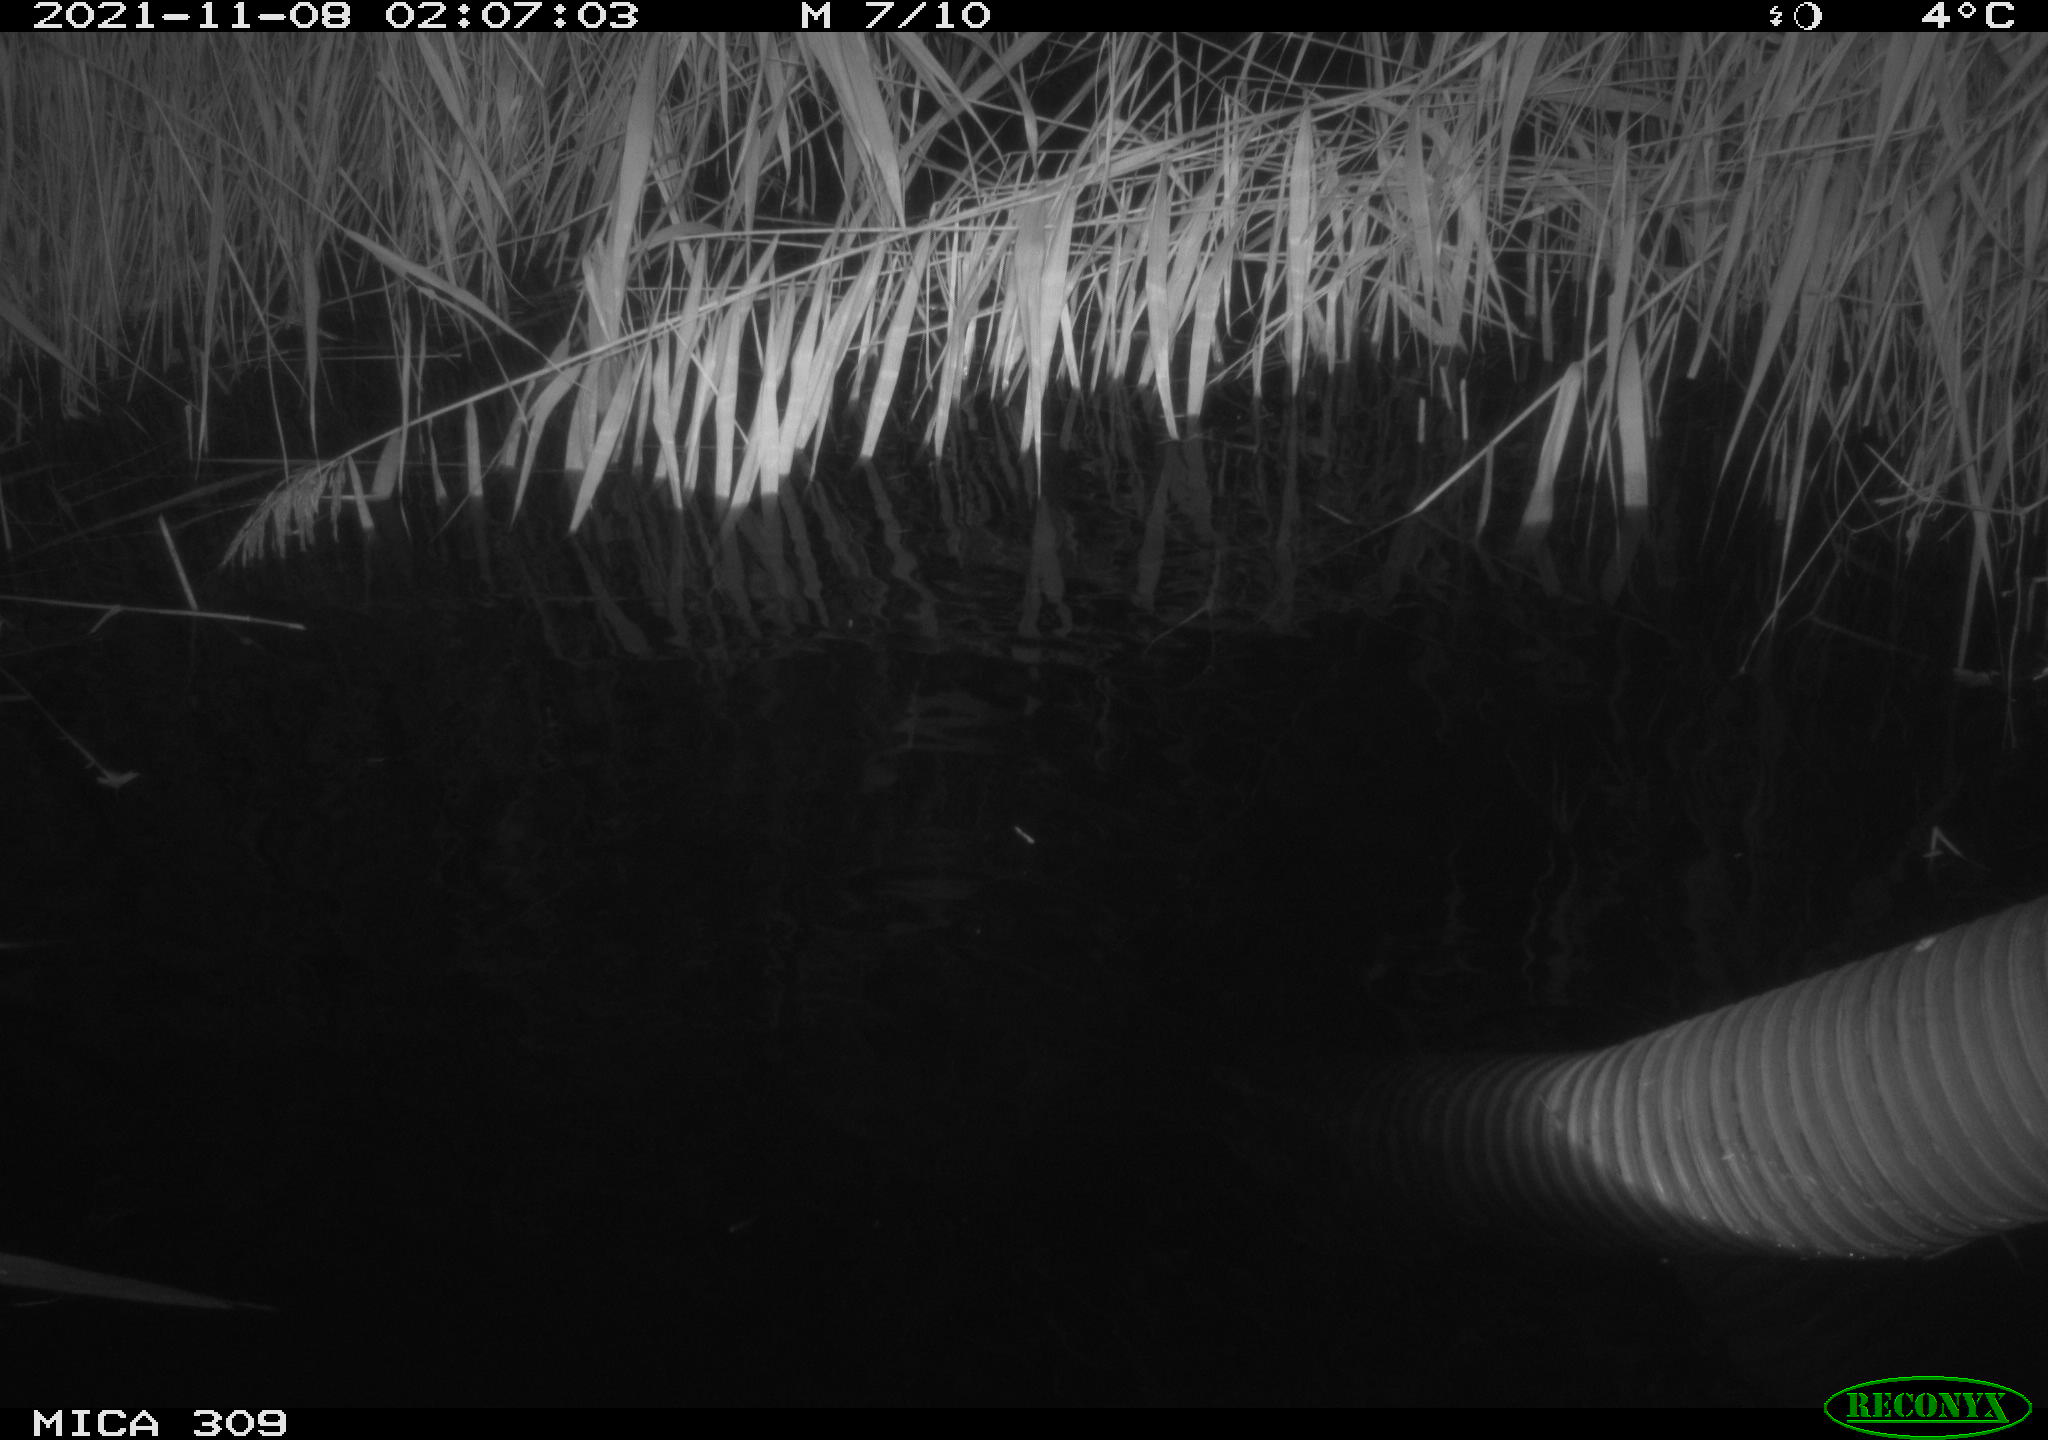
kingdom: Animalia
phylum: Chordata
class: Mammalia
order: Rodentia
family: Cricetidae
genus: Ondatra
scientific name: Ondatra zibethicus
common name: Muskrat
